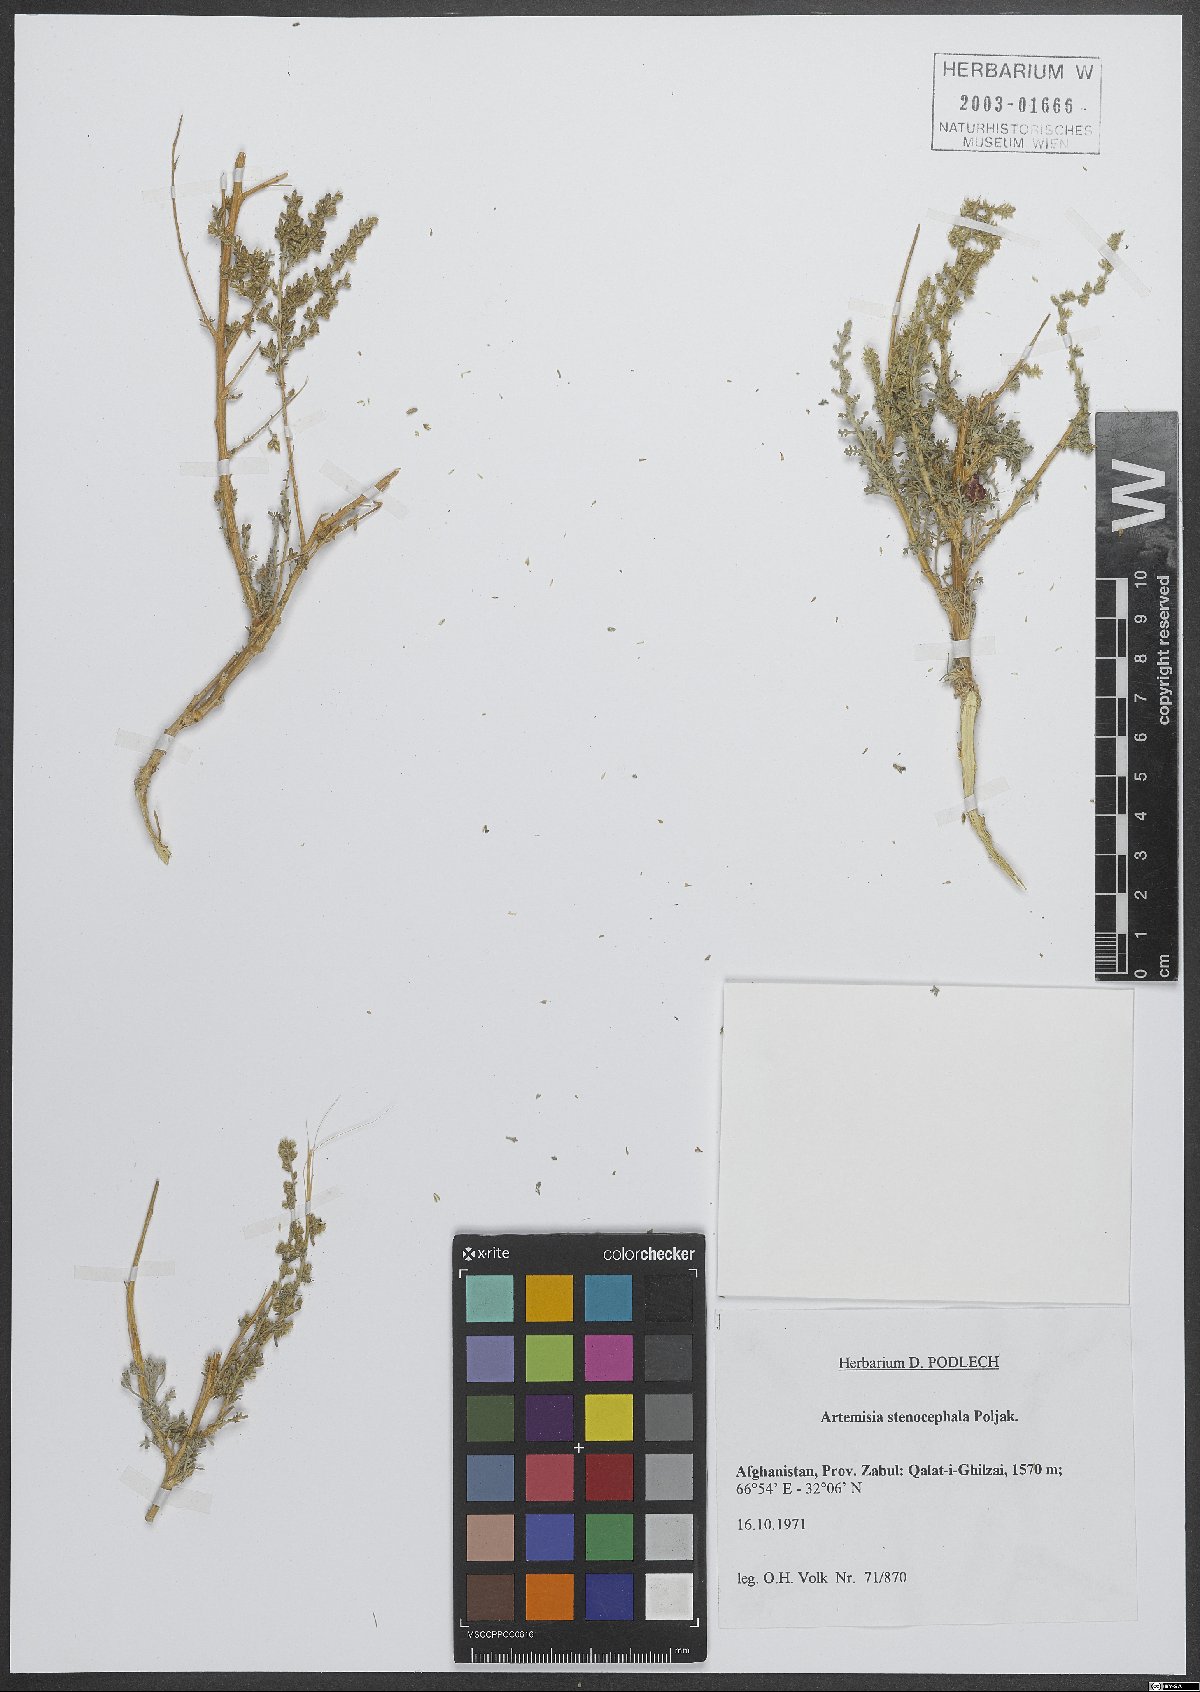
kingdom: Plantae
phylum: Tracheophyta
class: Magnoliopsida
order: Asterales
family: Asteraceae
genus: Artemisia
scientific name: Artemisia stenocephala
